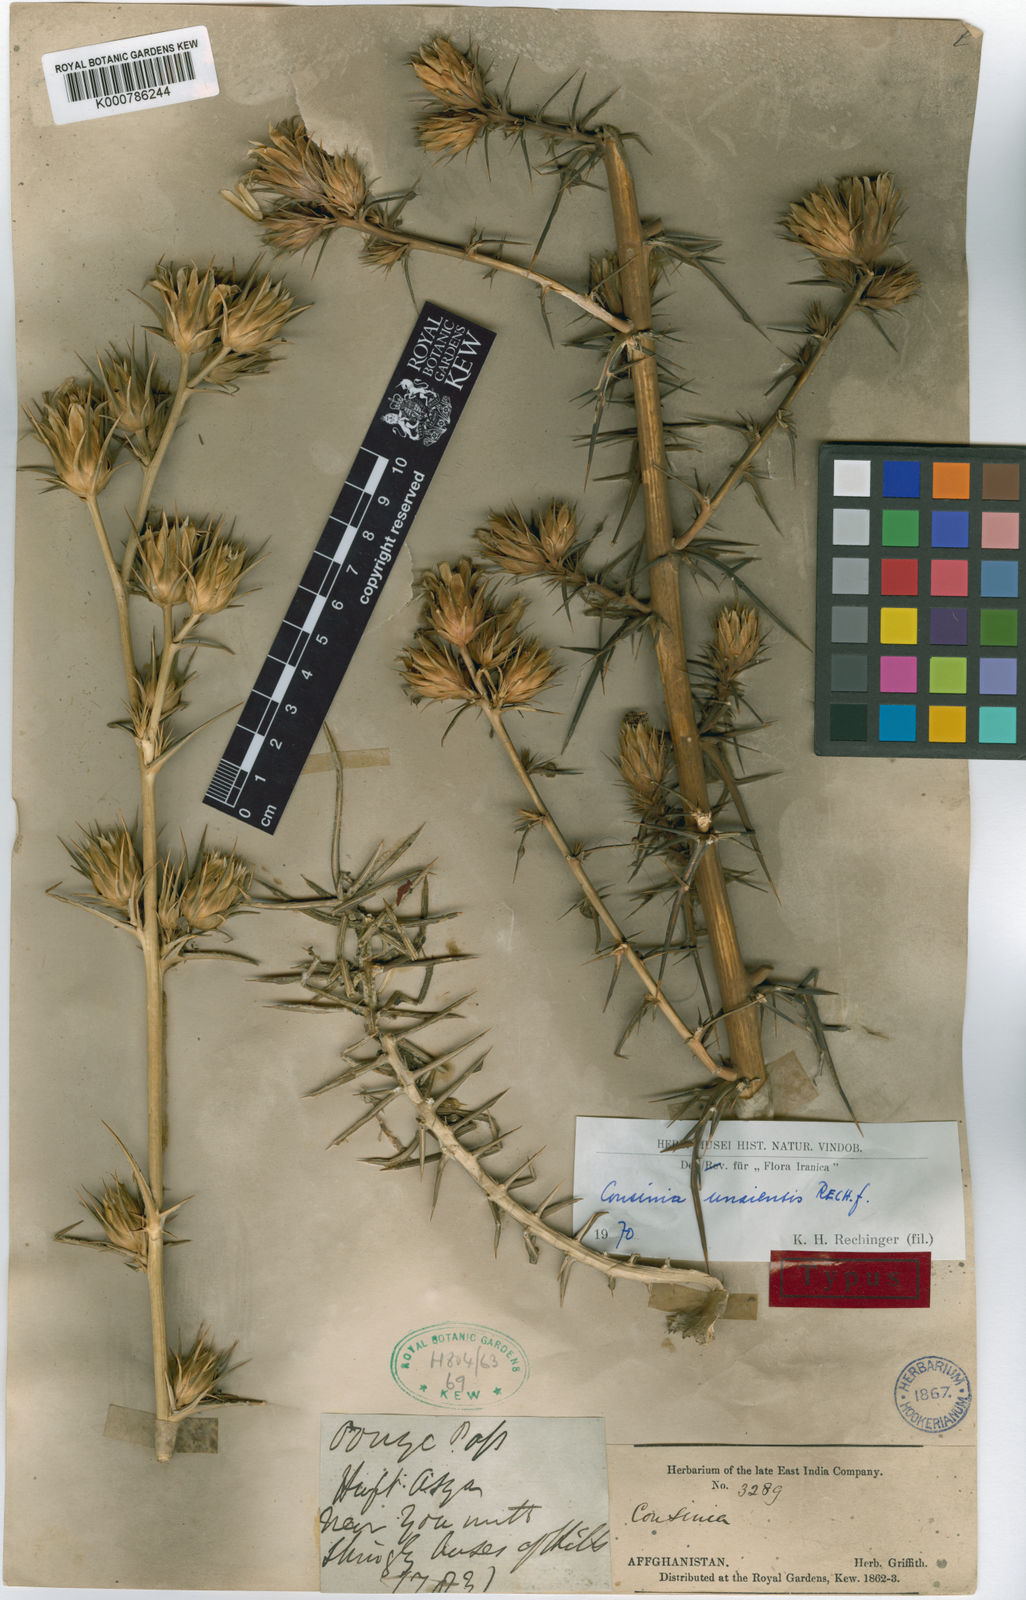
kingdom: Plantae
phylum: Tracheophyta
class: Magnoliopsida
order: Asterales
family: Asteraceae
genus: Cousinia
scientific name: Cousinia unaiensis
